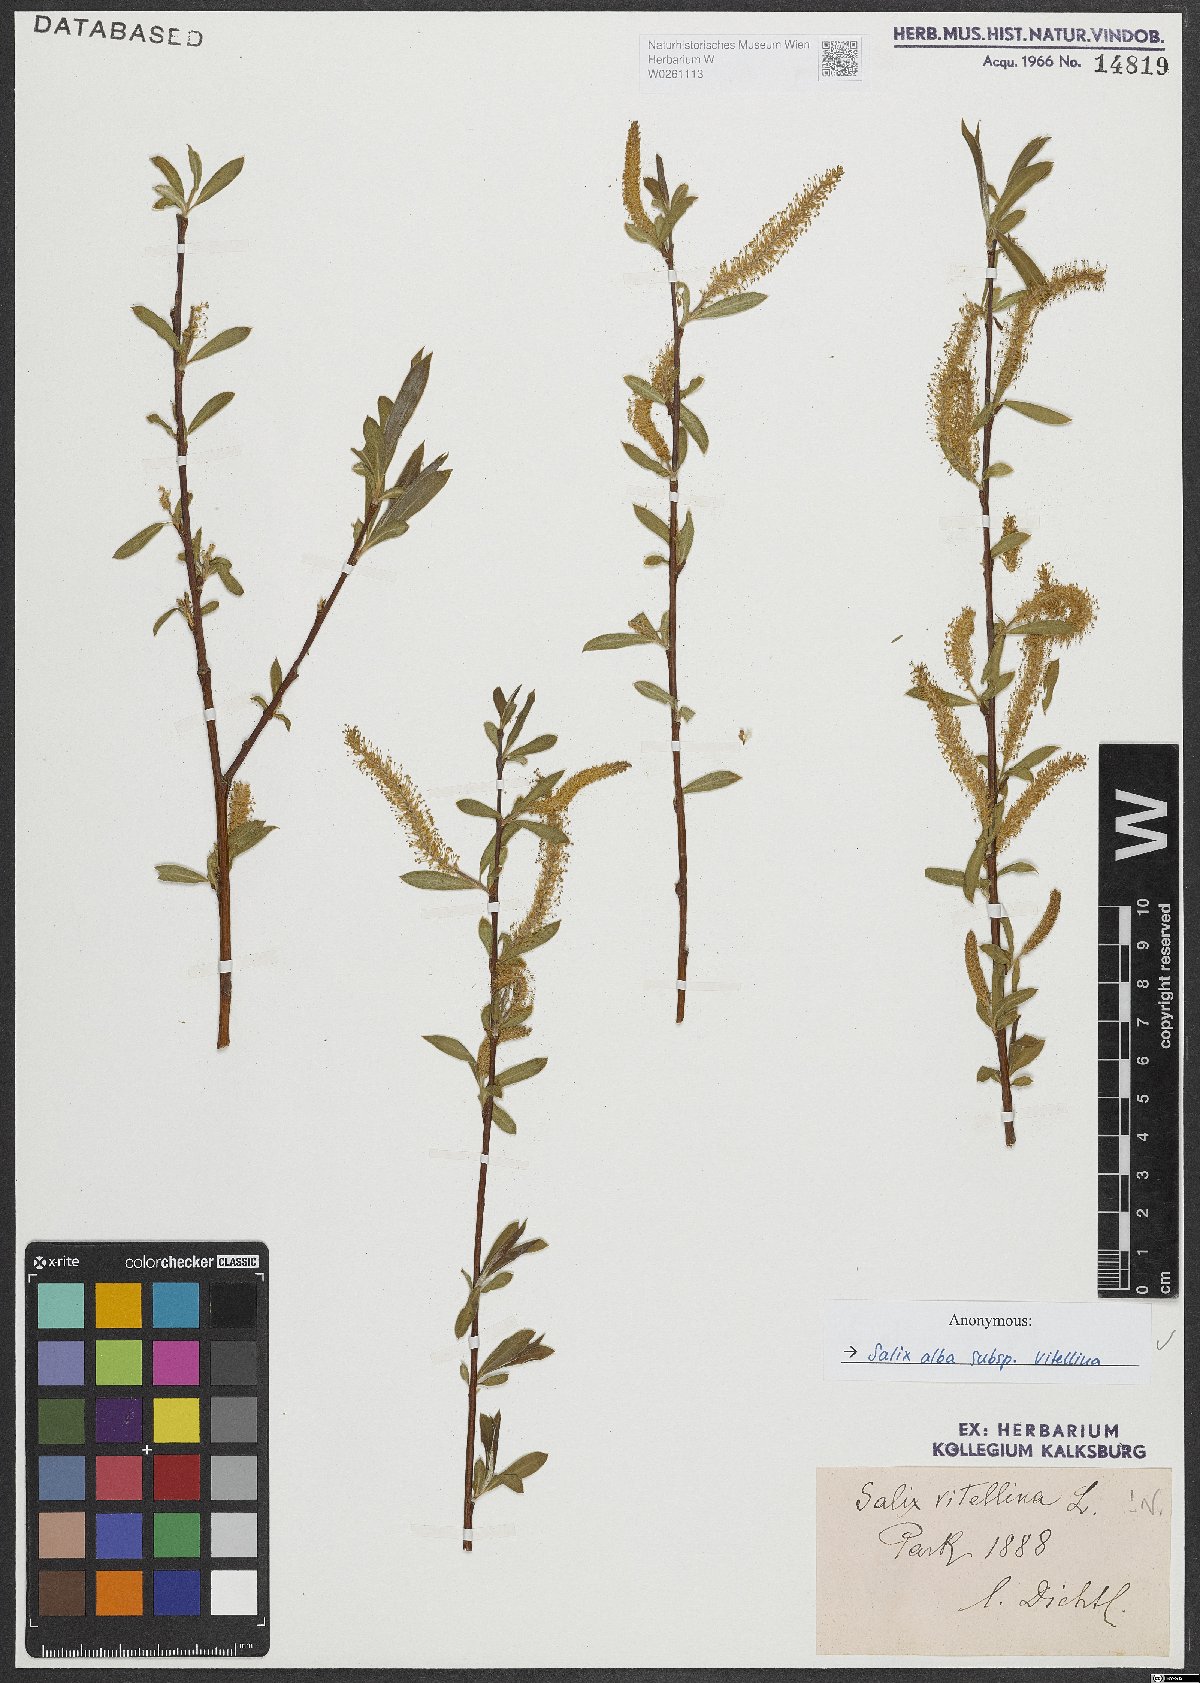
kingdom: Plantae
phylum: Tracheophyta
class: Magnoliopsida
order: Malpighiales
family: Salicaceae
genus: Salix
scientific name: Salix alba
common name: White willow
